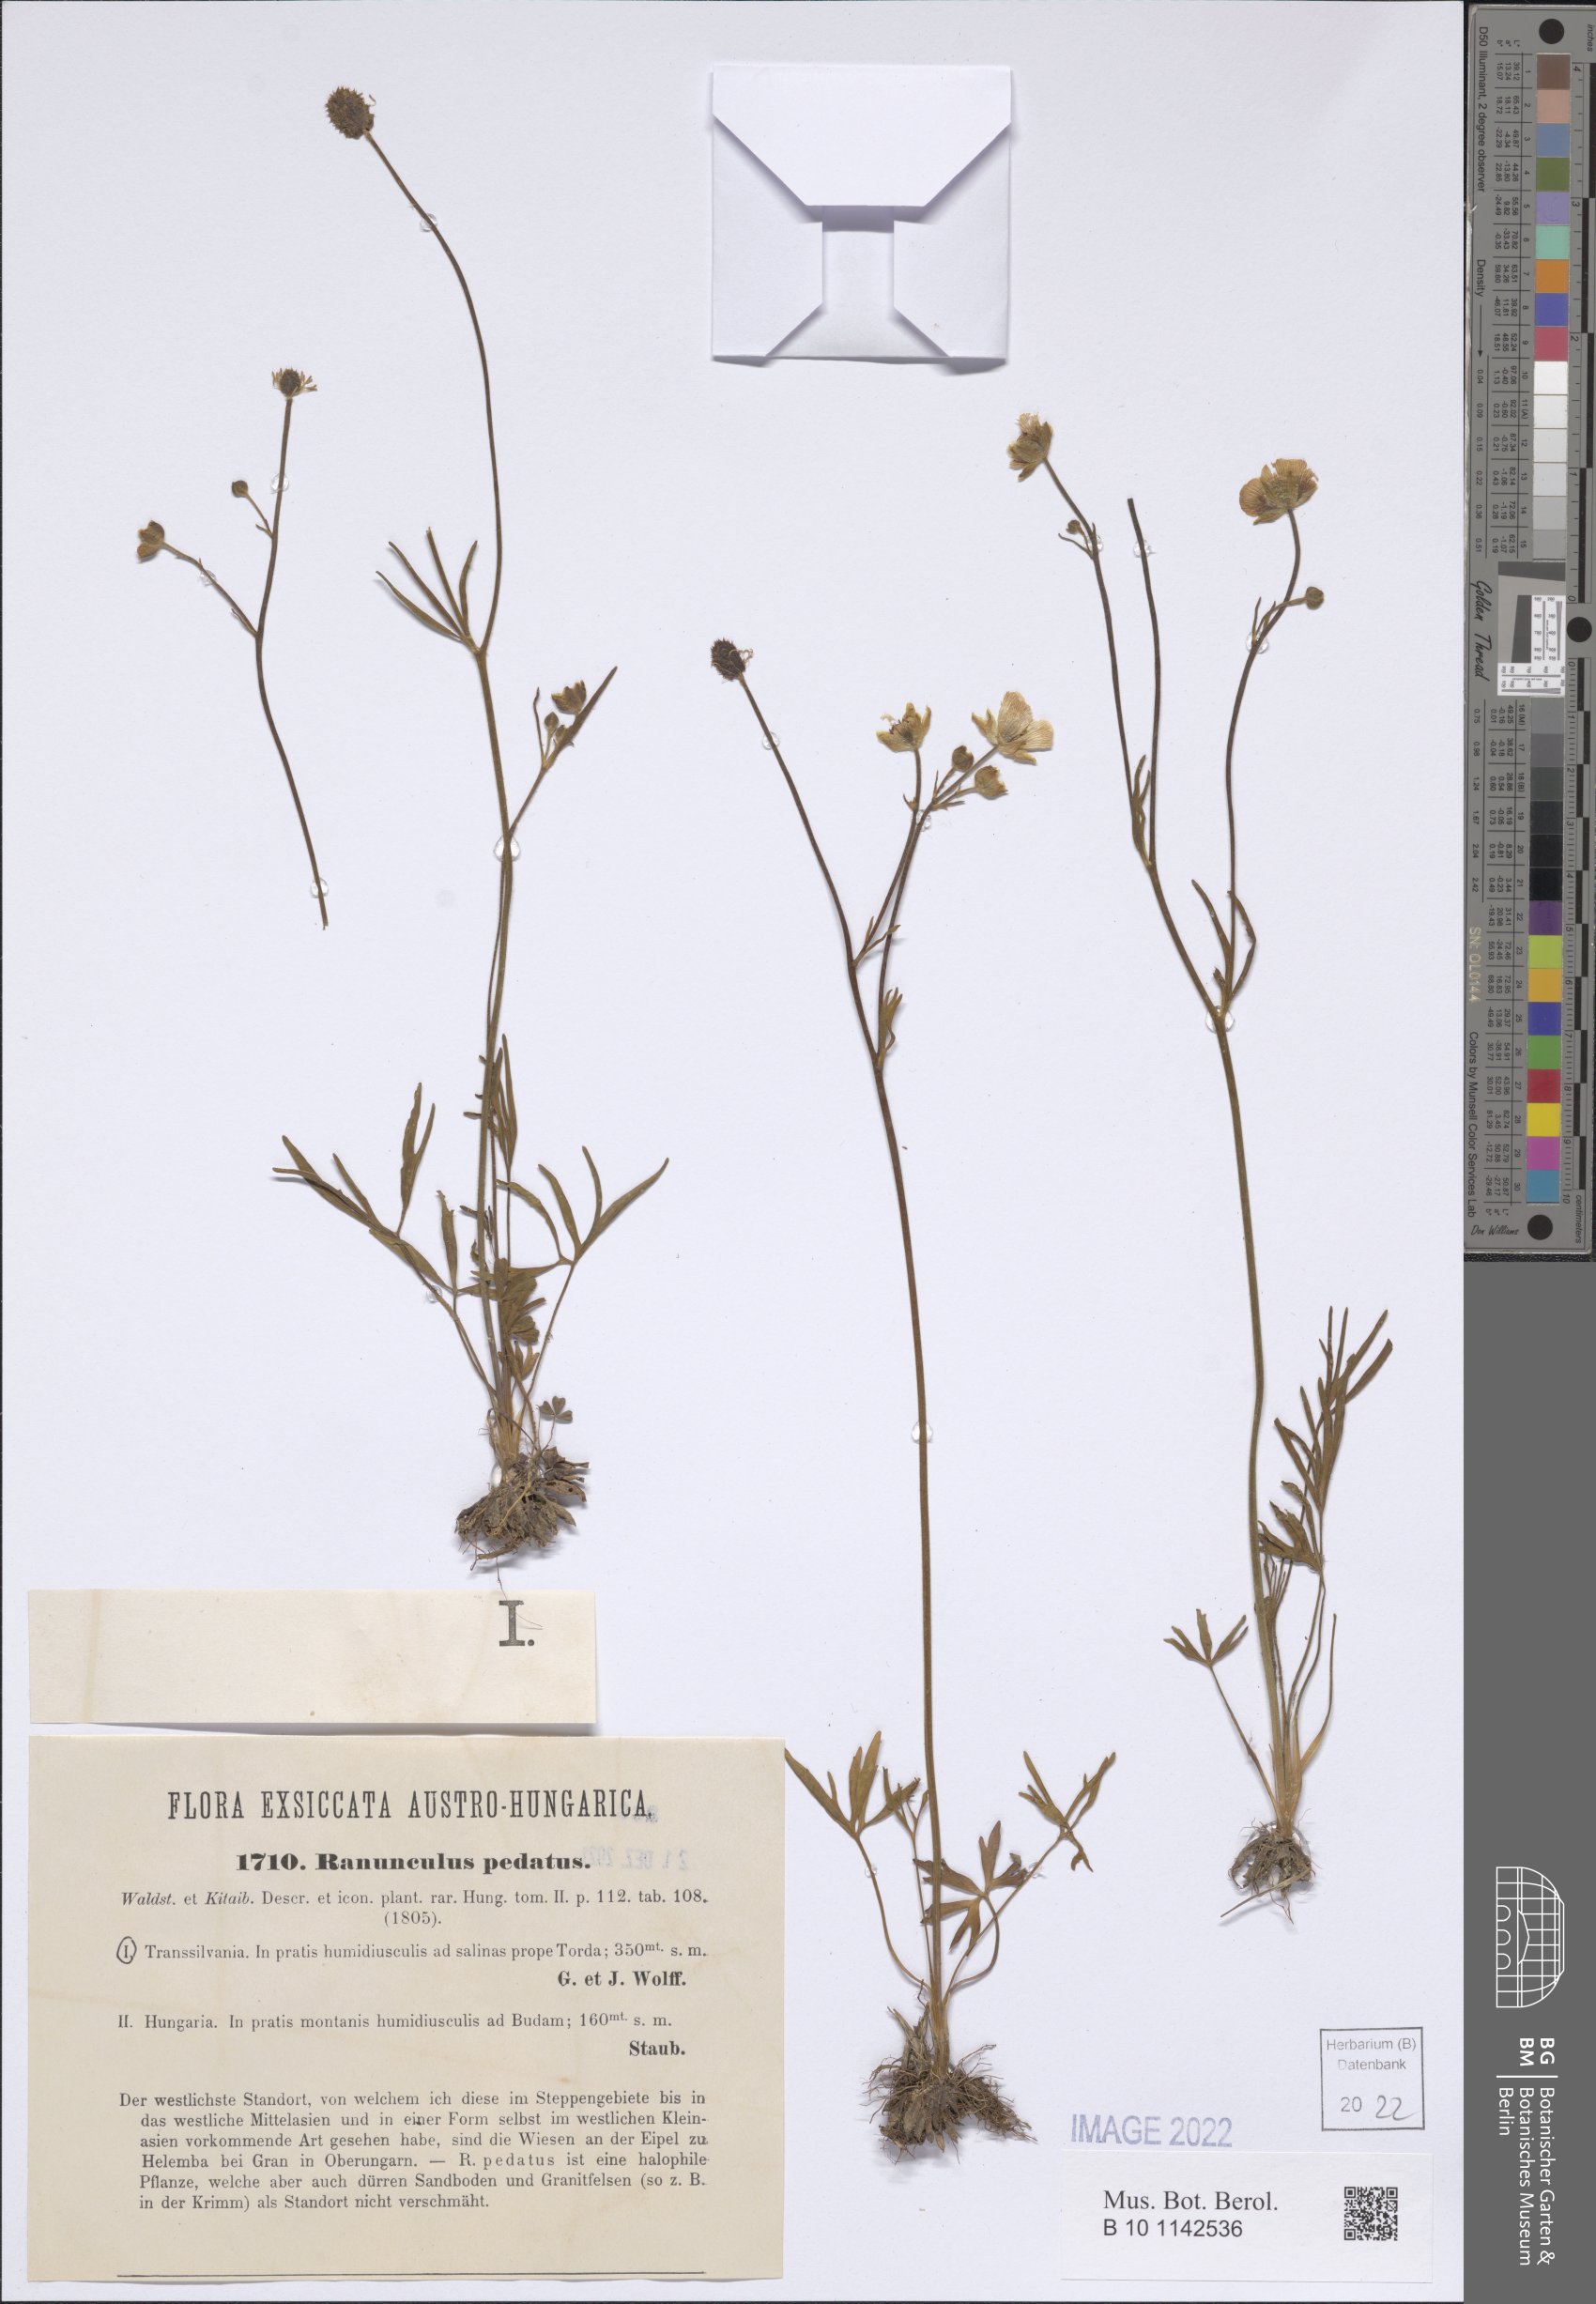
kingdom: Plantae
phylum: Tracheophyta
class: Magnoliopsida
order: Ranunculales
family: Ranunculaceae
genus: Ranunculus
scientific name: Ranunculus pedatus
